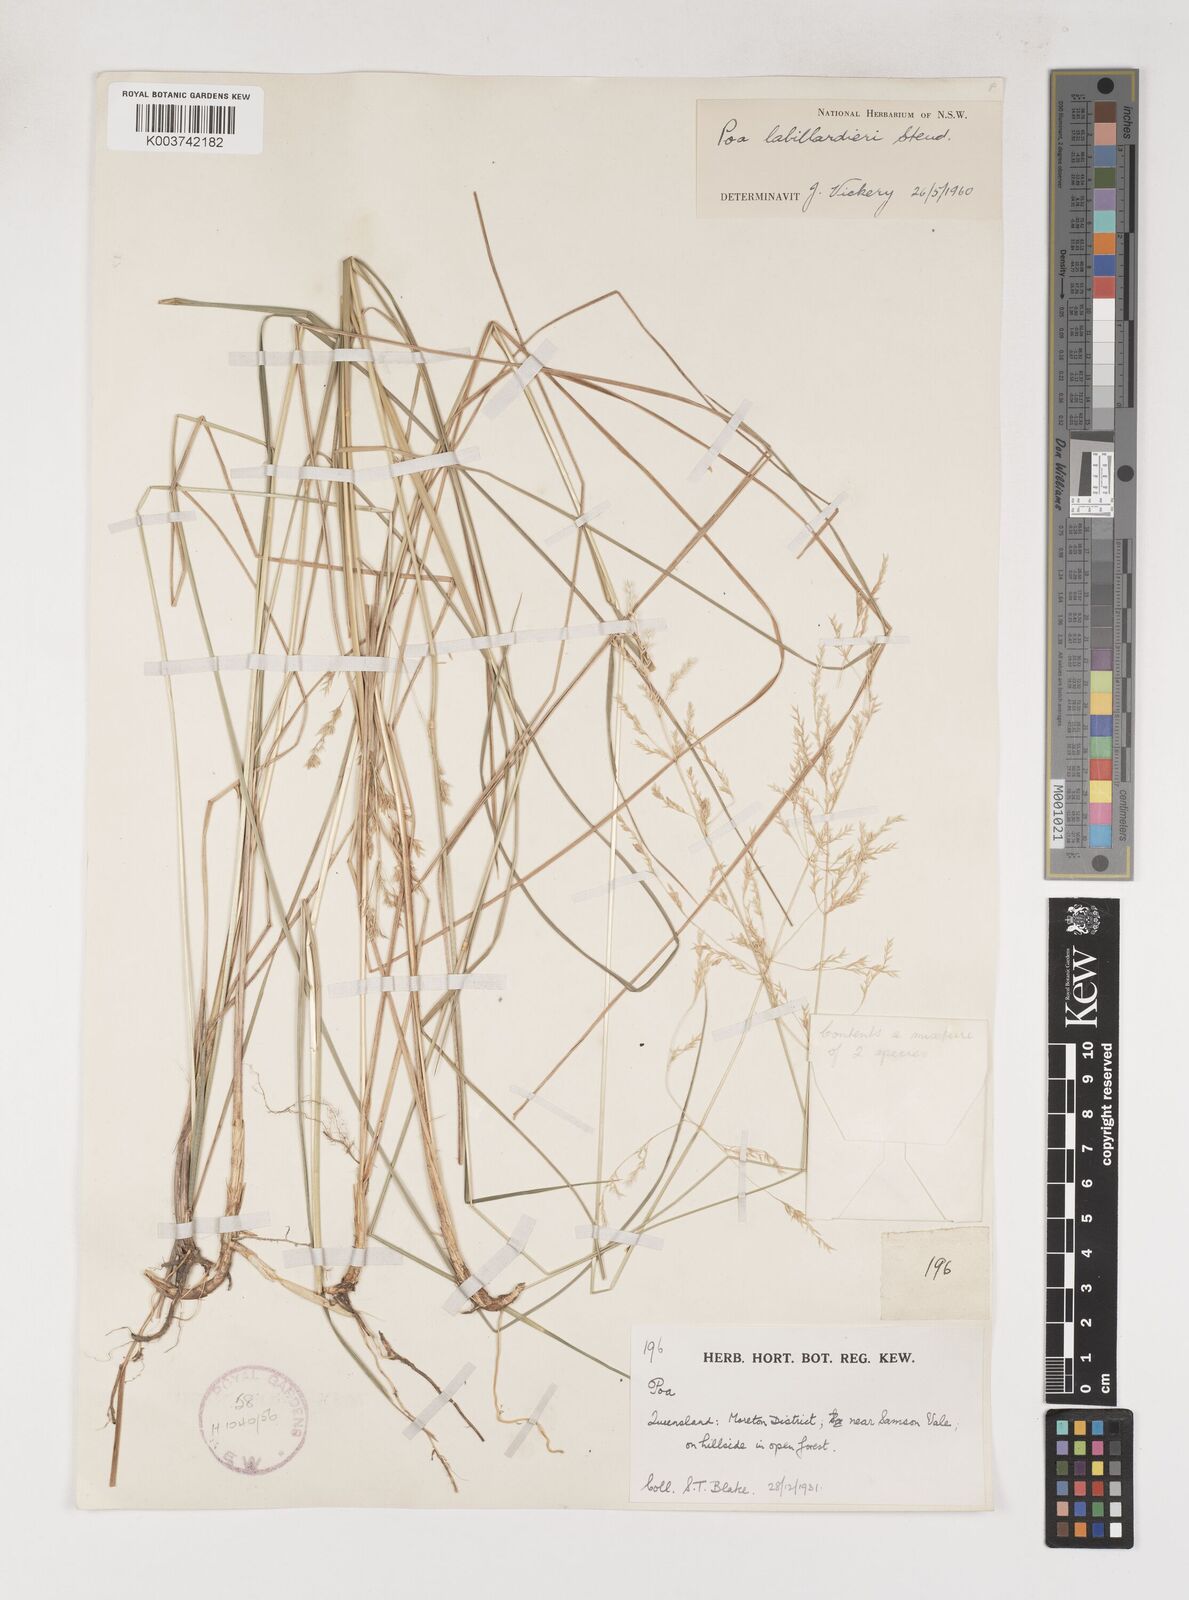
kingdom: Plantae
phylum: Tracheophyta
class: Liliopsida
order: Poales
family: Poaceae
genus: Poa
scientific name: Poa labillardierei
